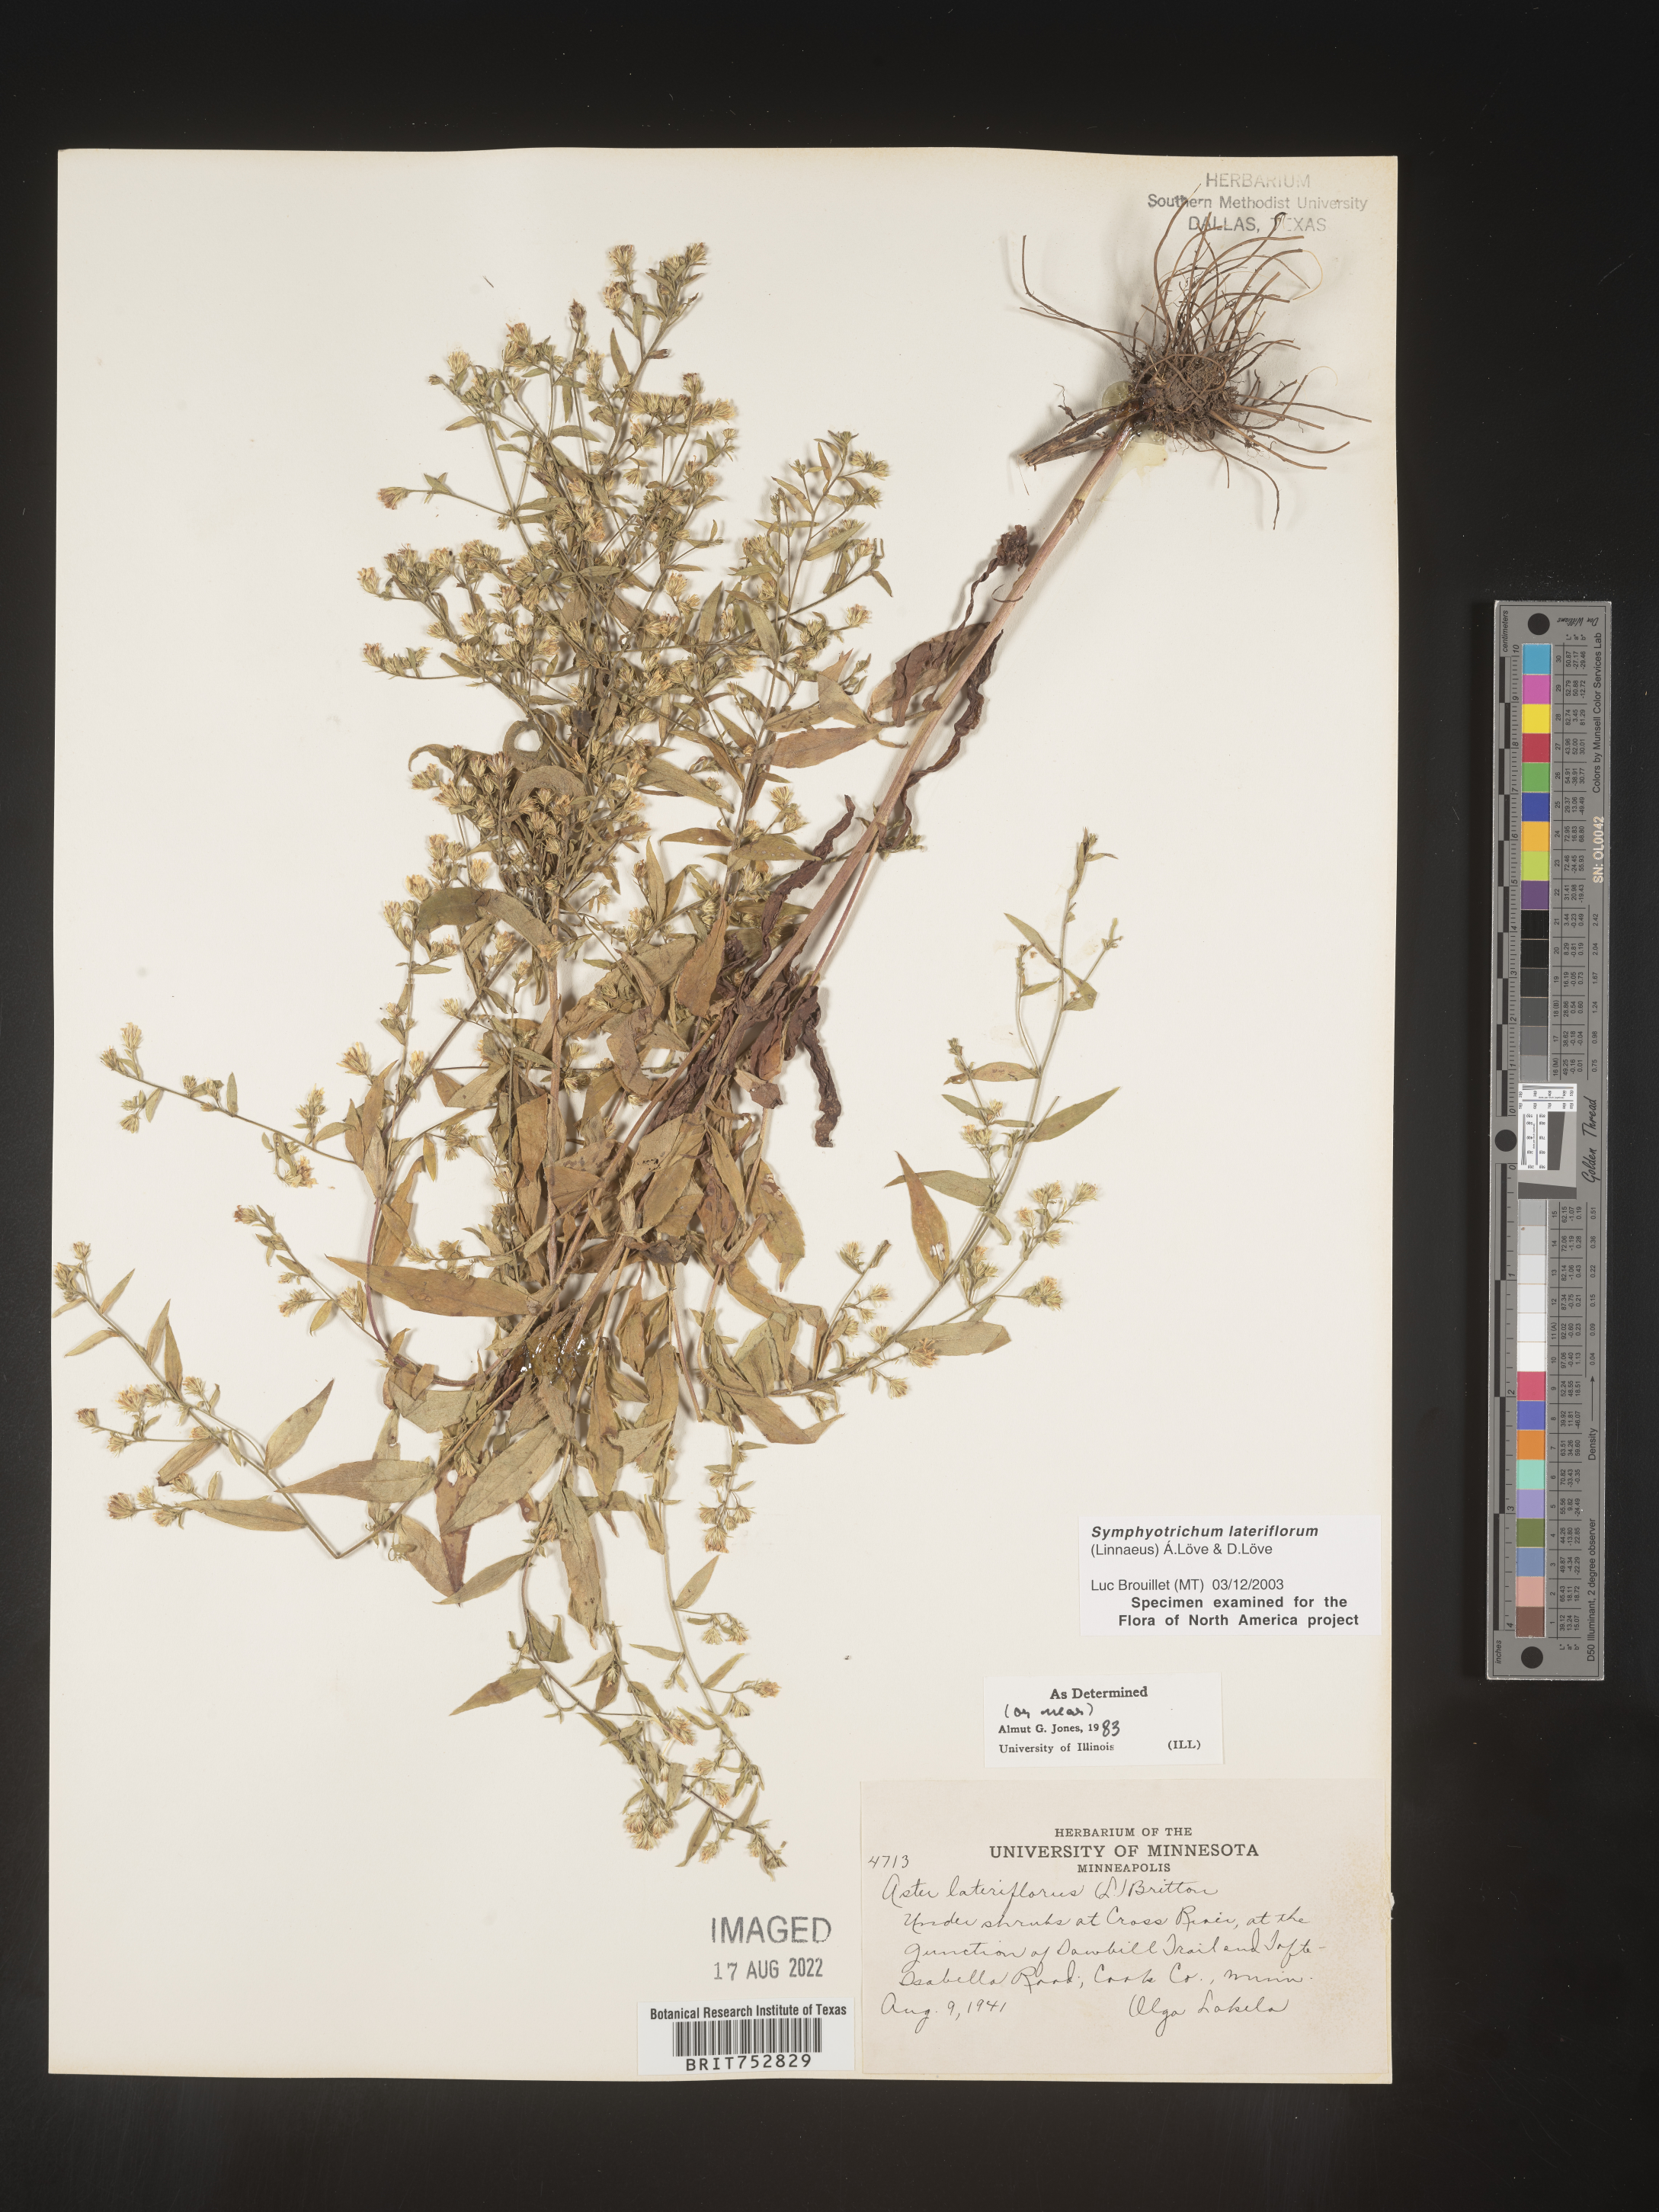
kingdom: Plantae
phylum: Tracheophyta
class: Magnoliopsida
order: Asterales
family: Asteraceae
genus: Symphyotrichum
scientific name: Symphyotrichum lateriflorum
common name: Calico aster
